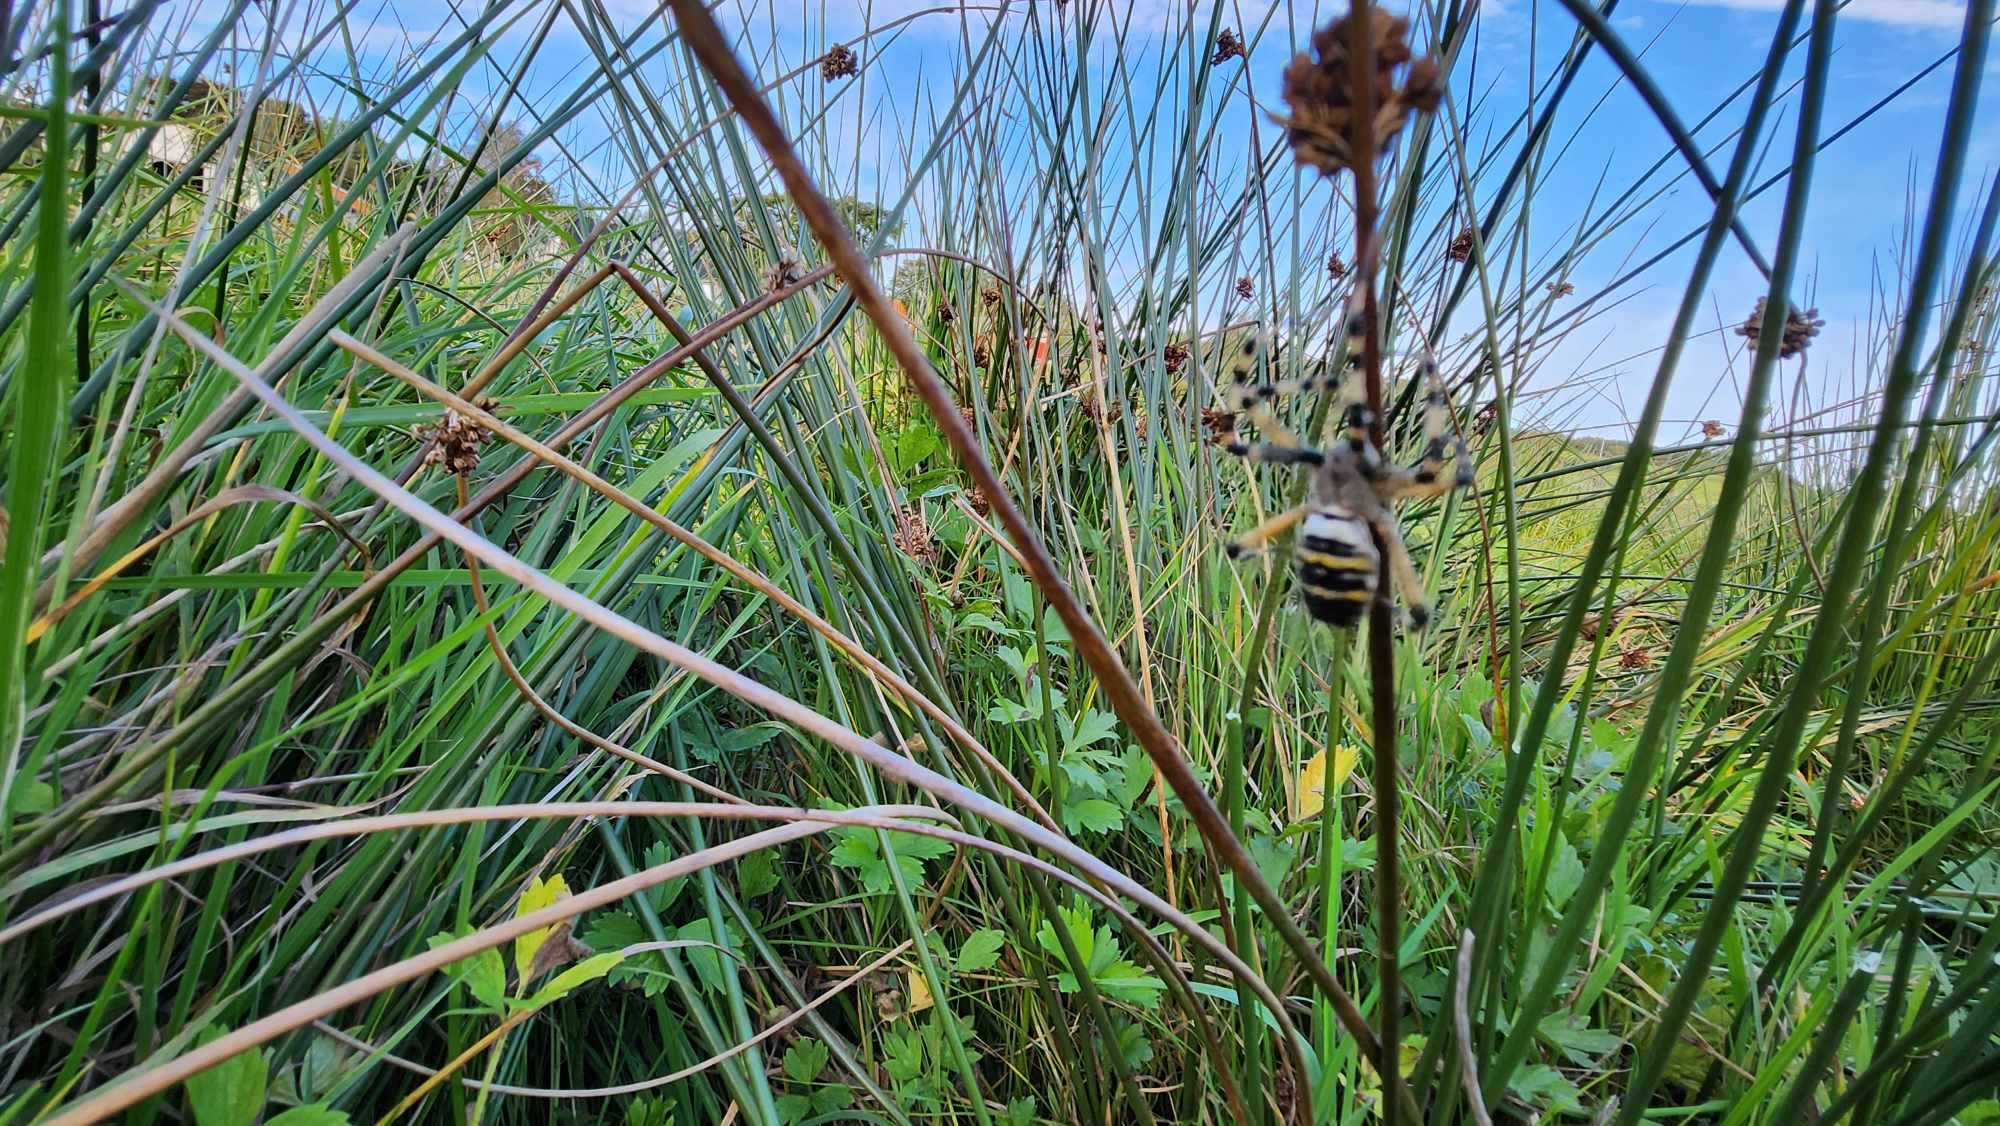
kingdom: Animalia
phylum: Arthropoda
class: Arachnida
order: Araneae
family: Araneidae
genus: Argiope
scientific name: Argiope bruennichi
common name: Hvepseedderkop
